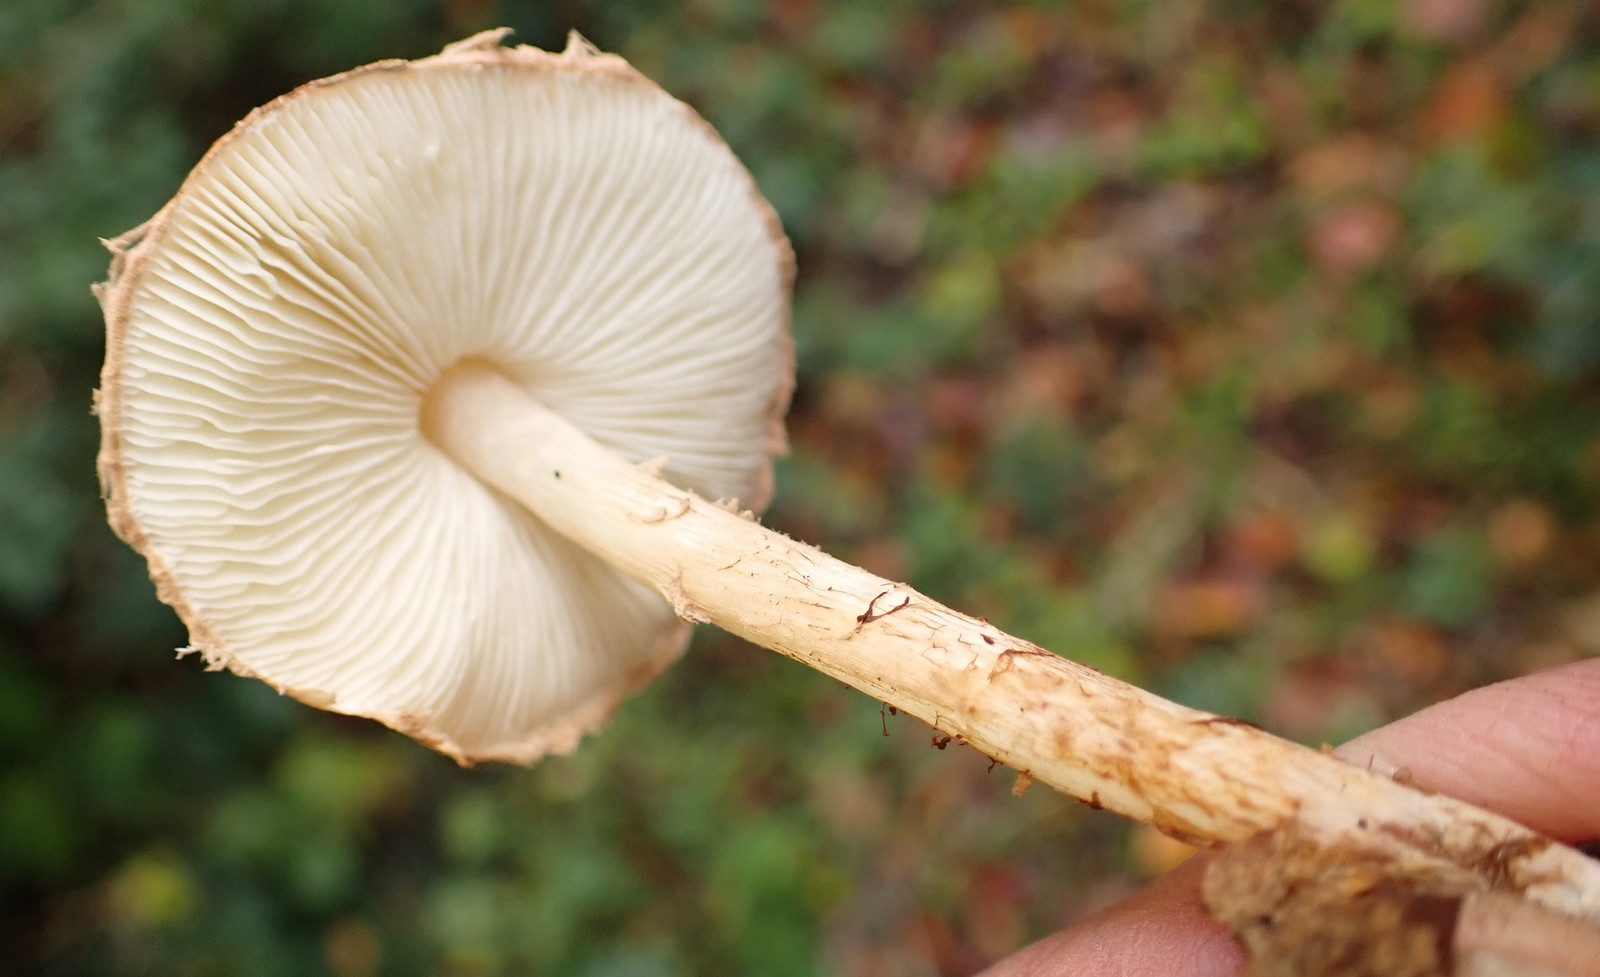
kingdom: Fungi
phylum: Basidiomycota
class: Agaricomycetes
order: Agaricales
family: Agaricaceae
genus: Lepiota
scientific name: Lepiota
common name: parasolhat
